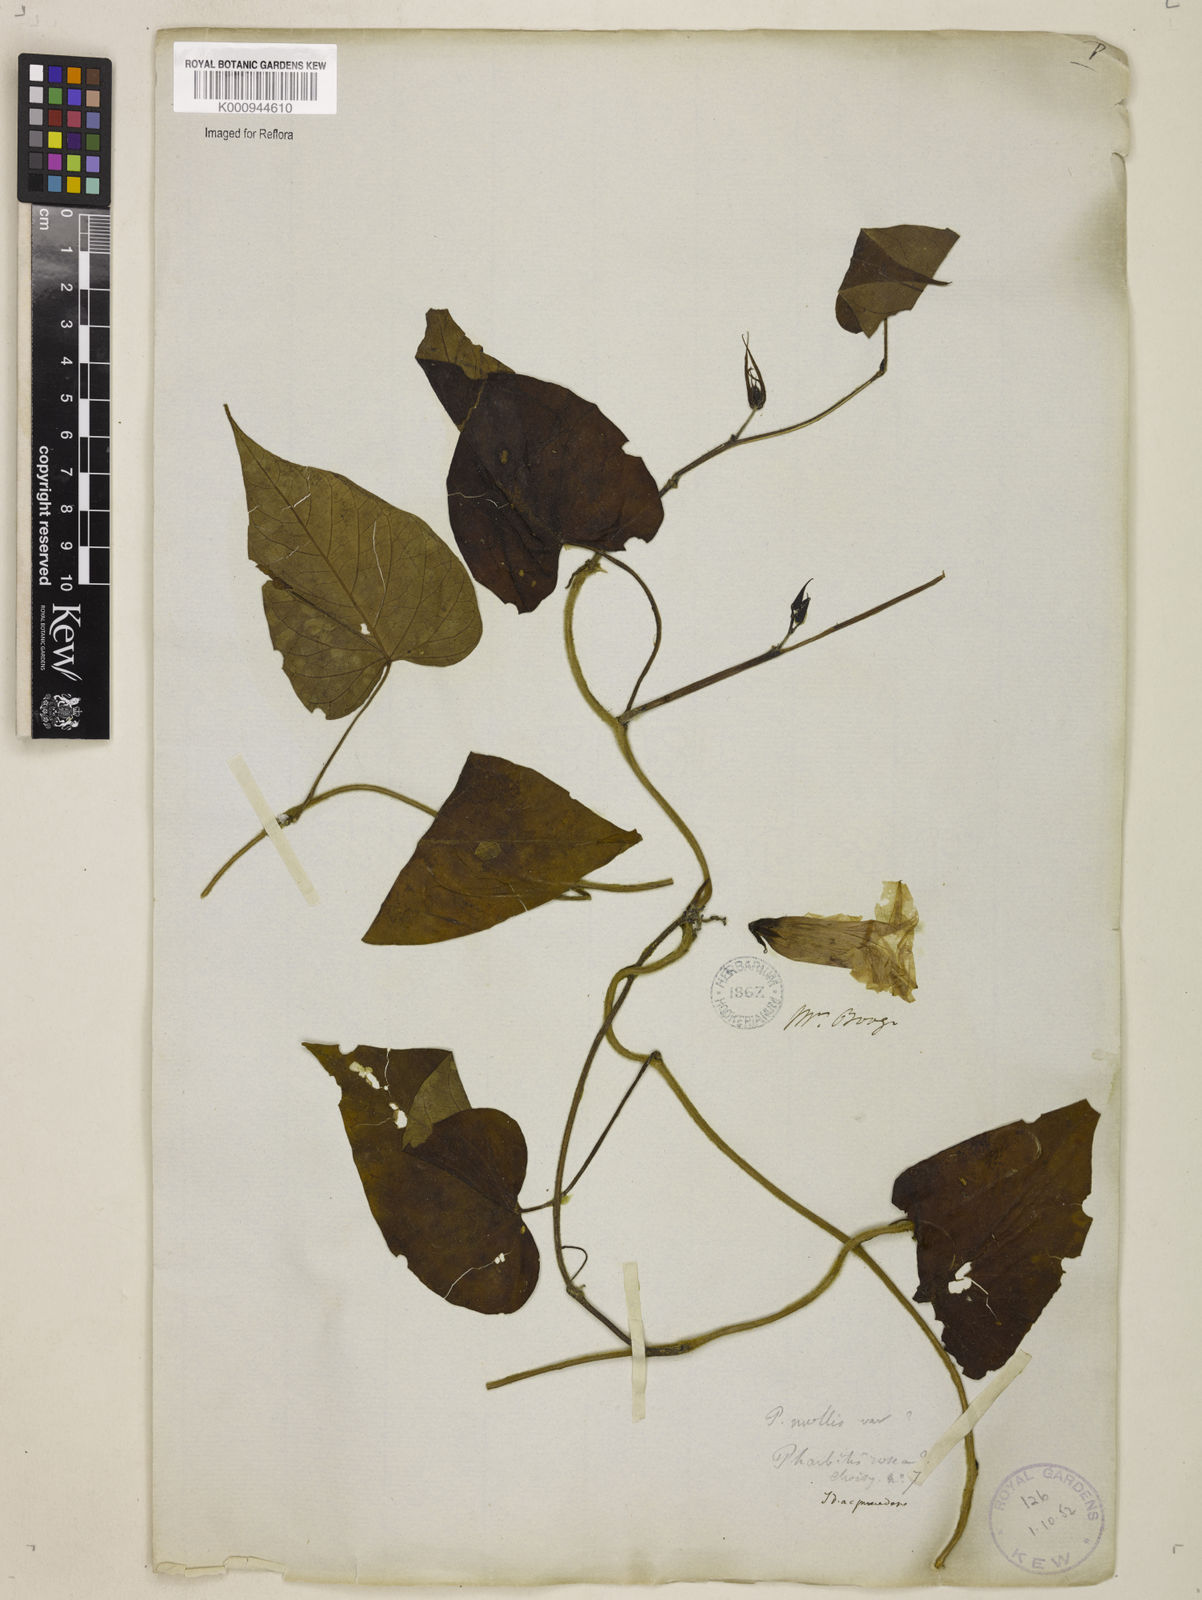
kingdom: Plantae
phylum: Tracheophyta
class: Magnoliopsida
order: Solanales
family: Convolvulaceae
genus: Ipomoea
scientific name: Ipomoea
